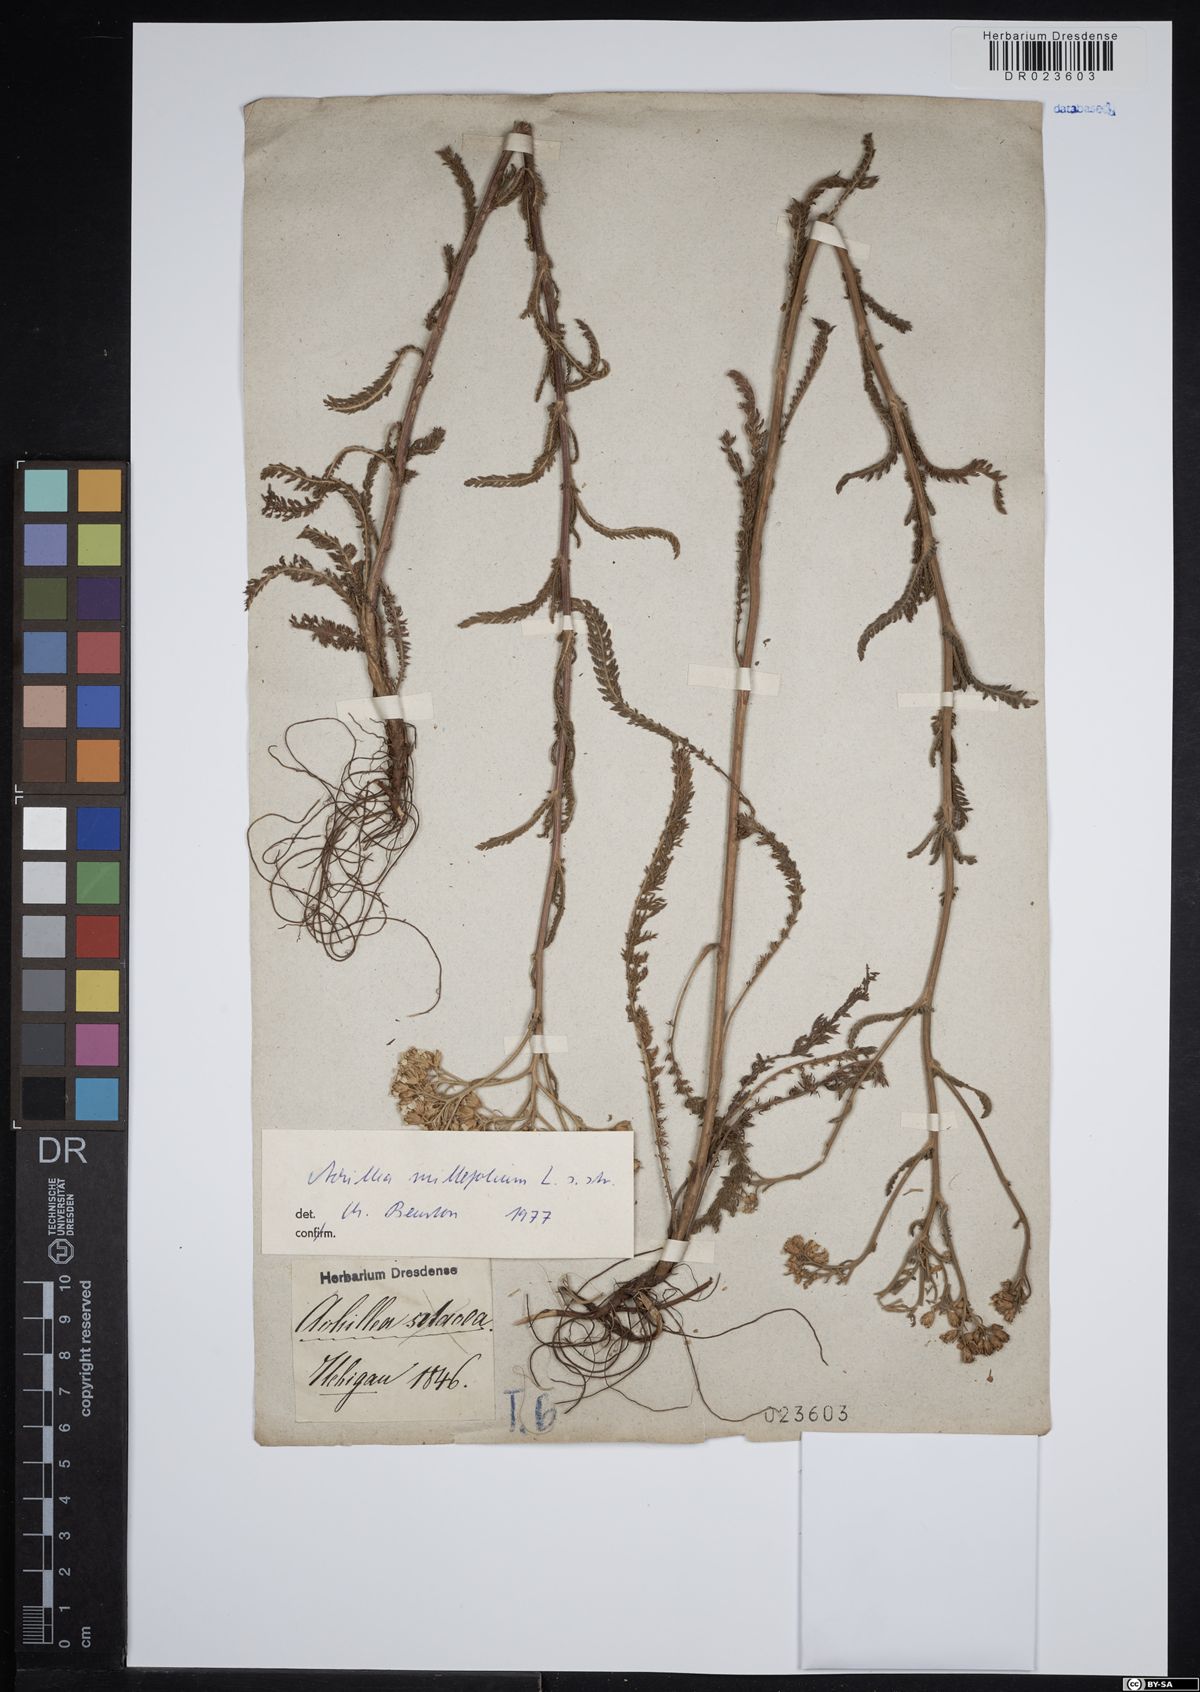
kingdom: Plantae
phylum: Tracheophyta
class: Magnoliopsida
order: Asterales
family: Asteraceae
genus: Achillea
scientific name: Achillea millefolium
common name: Yarrow
